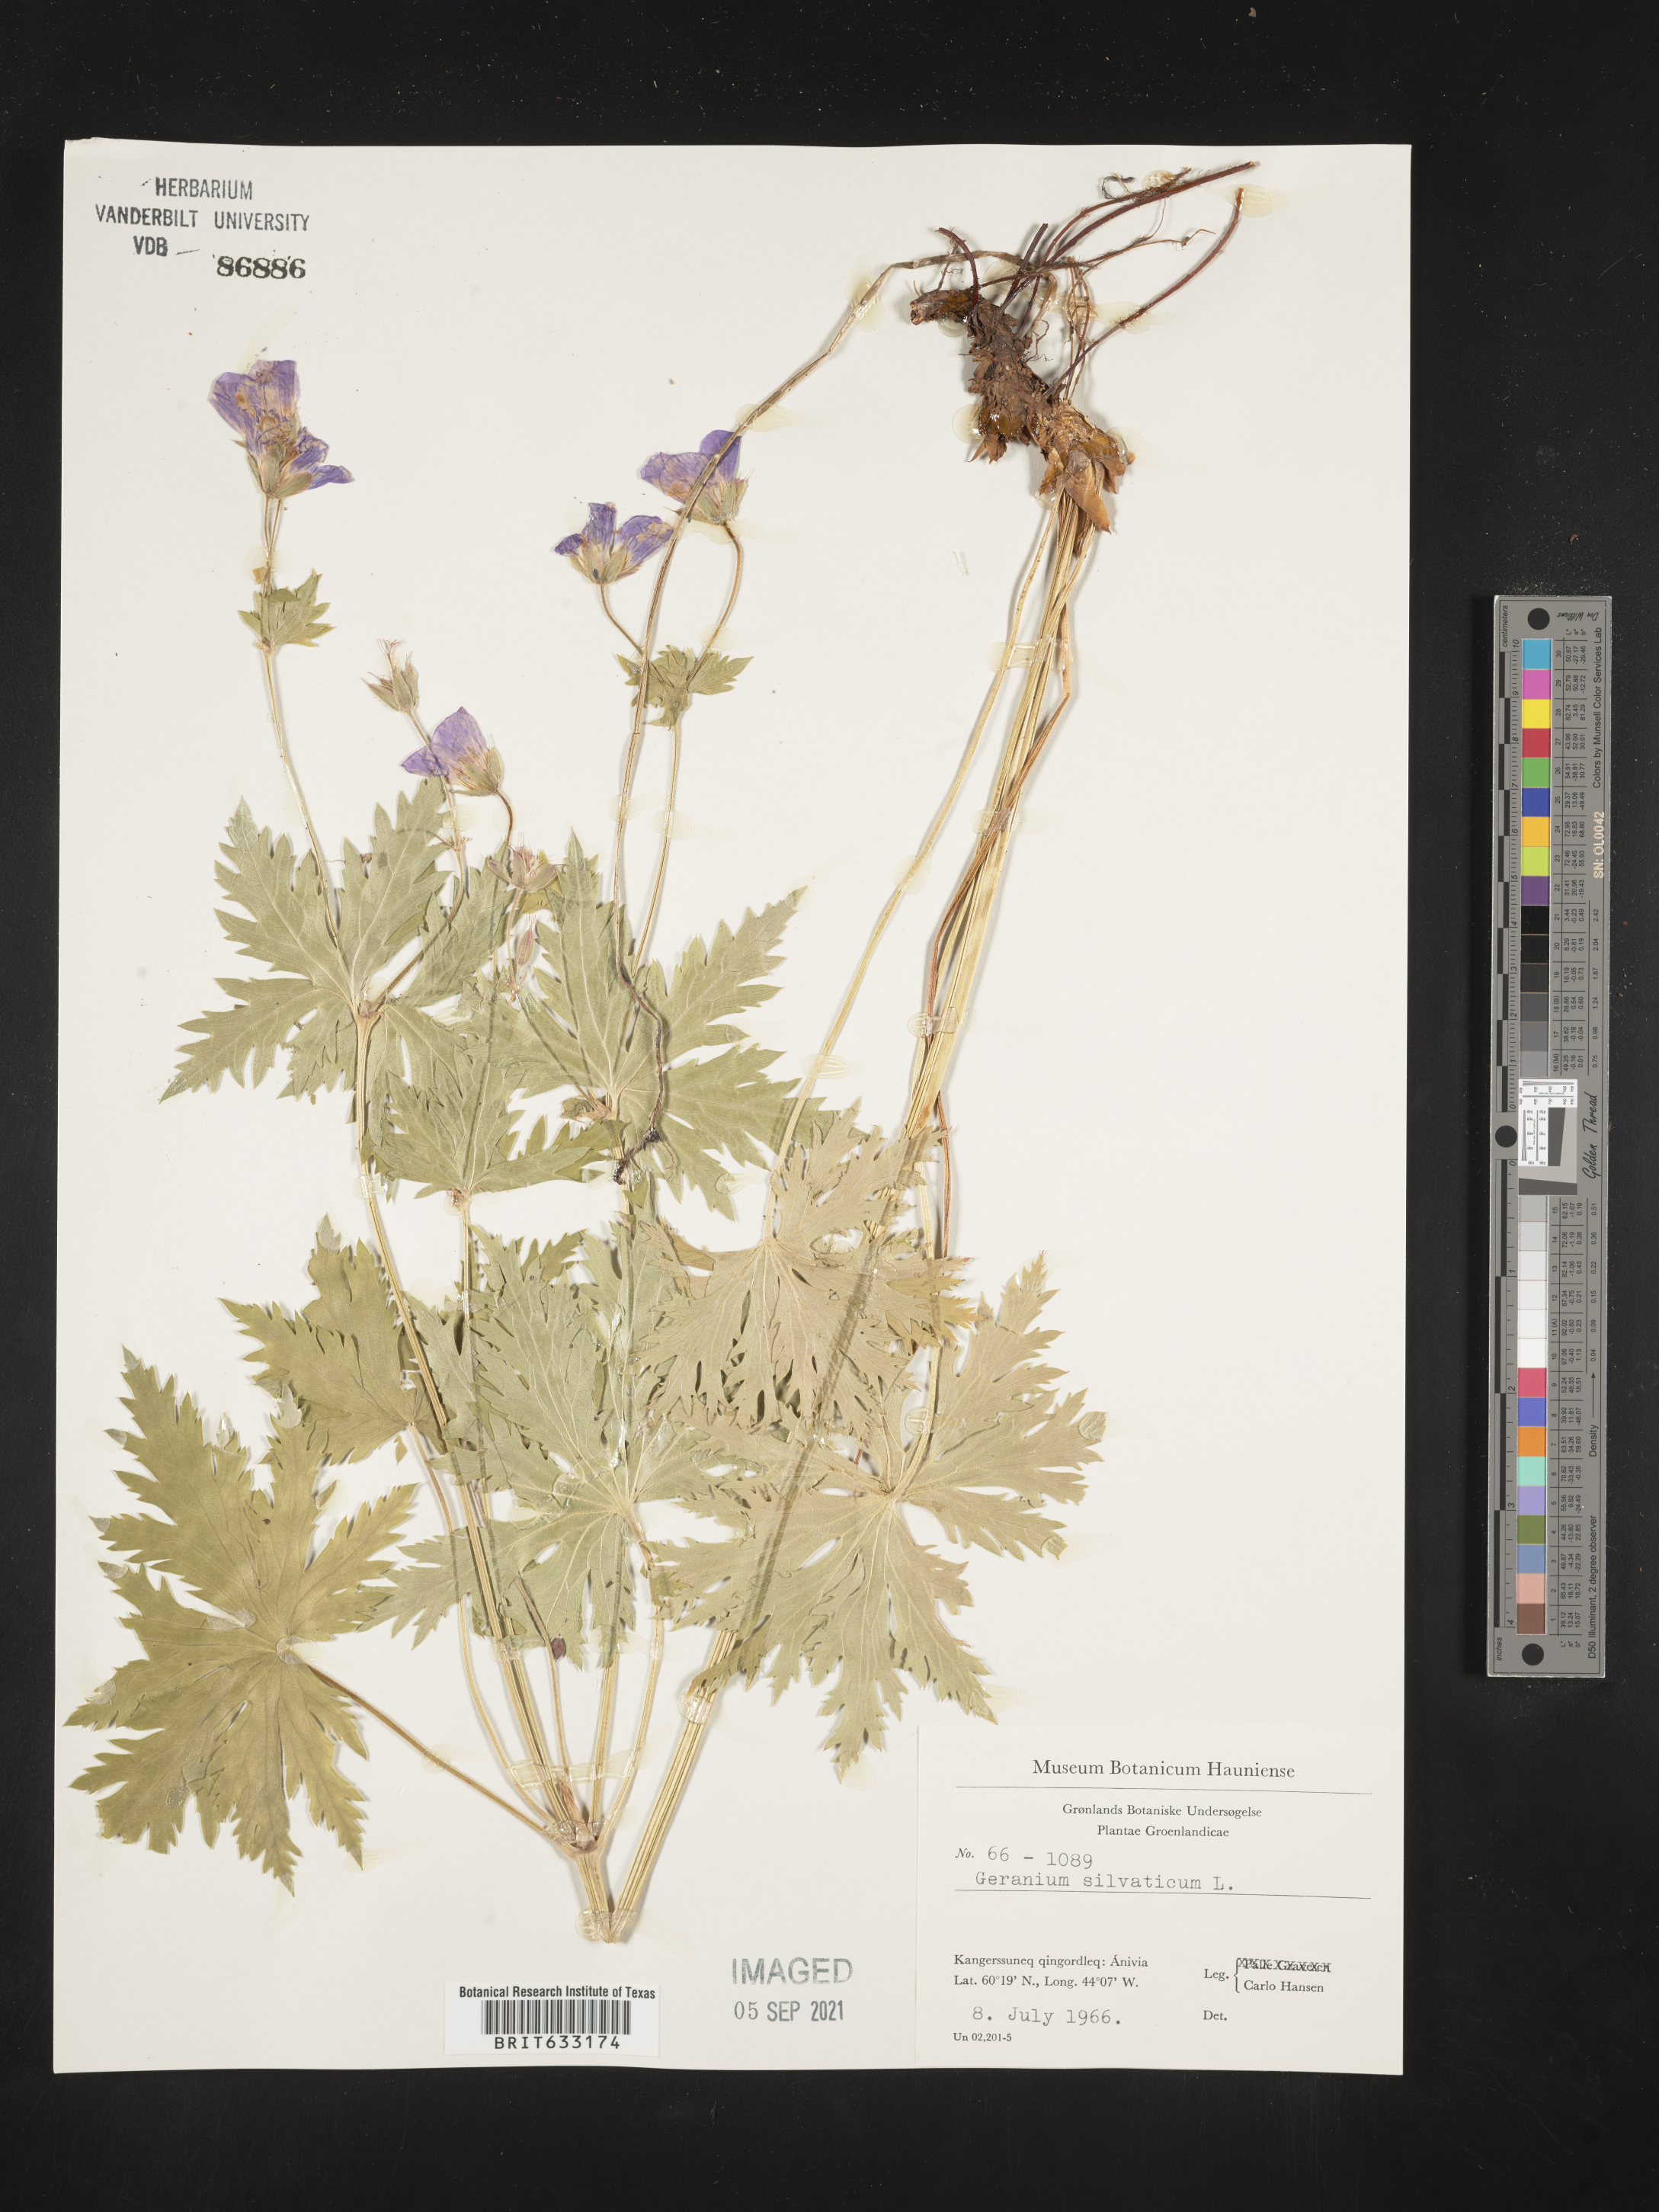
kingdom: Plantae
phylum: Tracheophyta
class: Magnoliopsida
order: Geraniales
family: Geraniaceae
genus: Geranium
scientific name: Geranium
